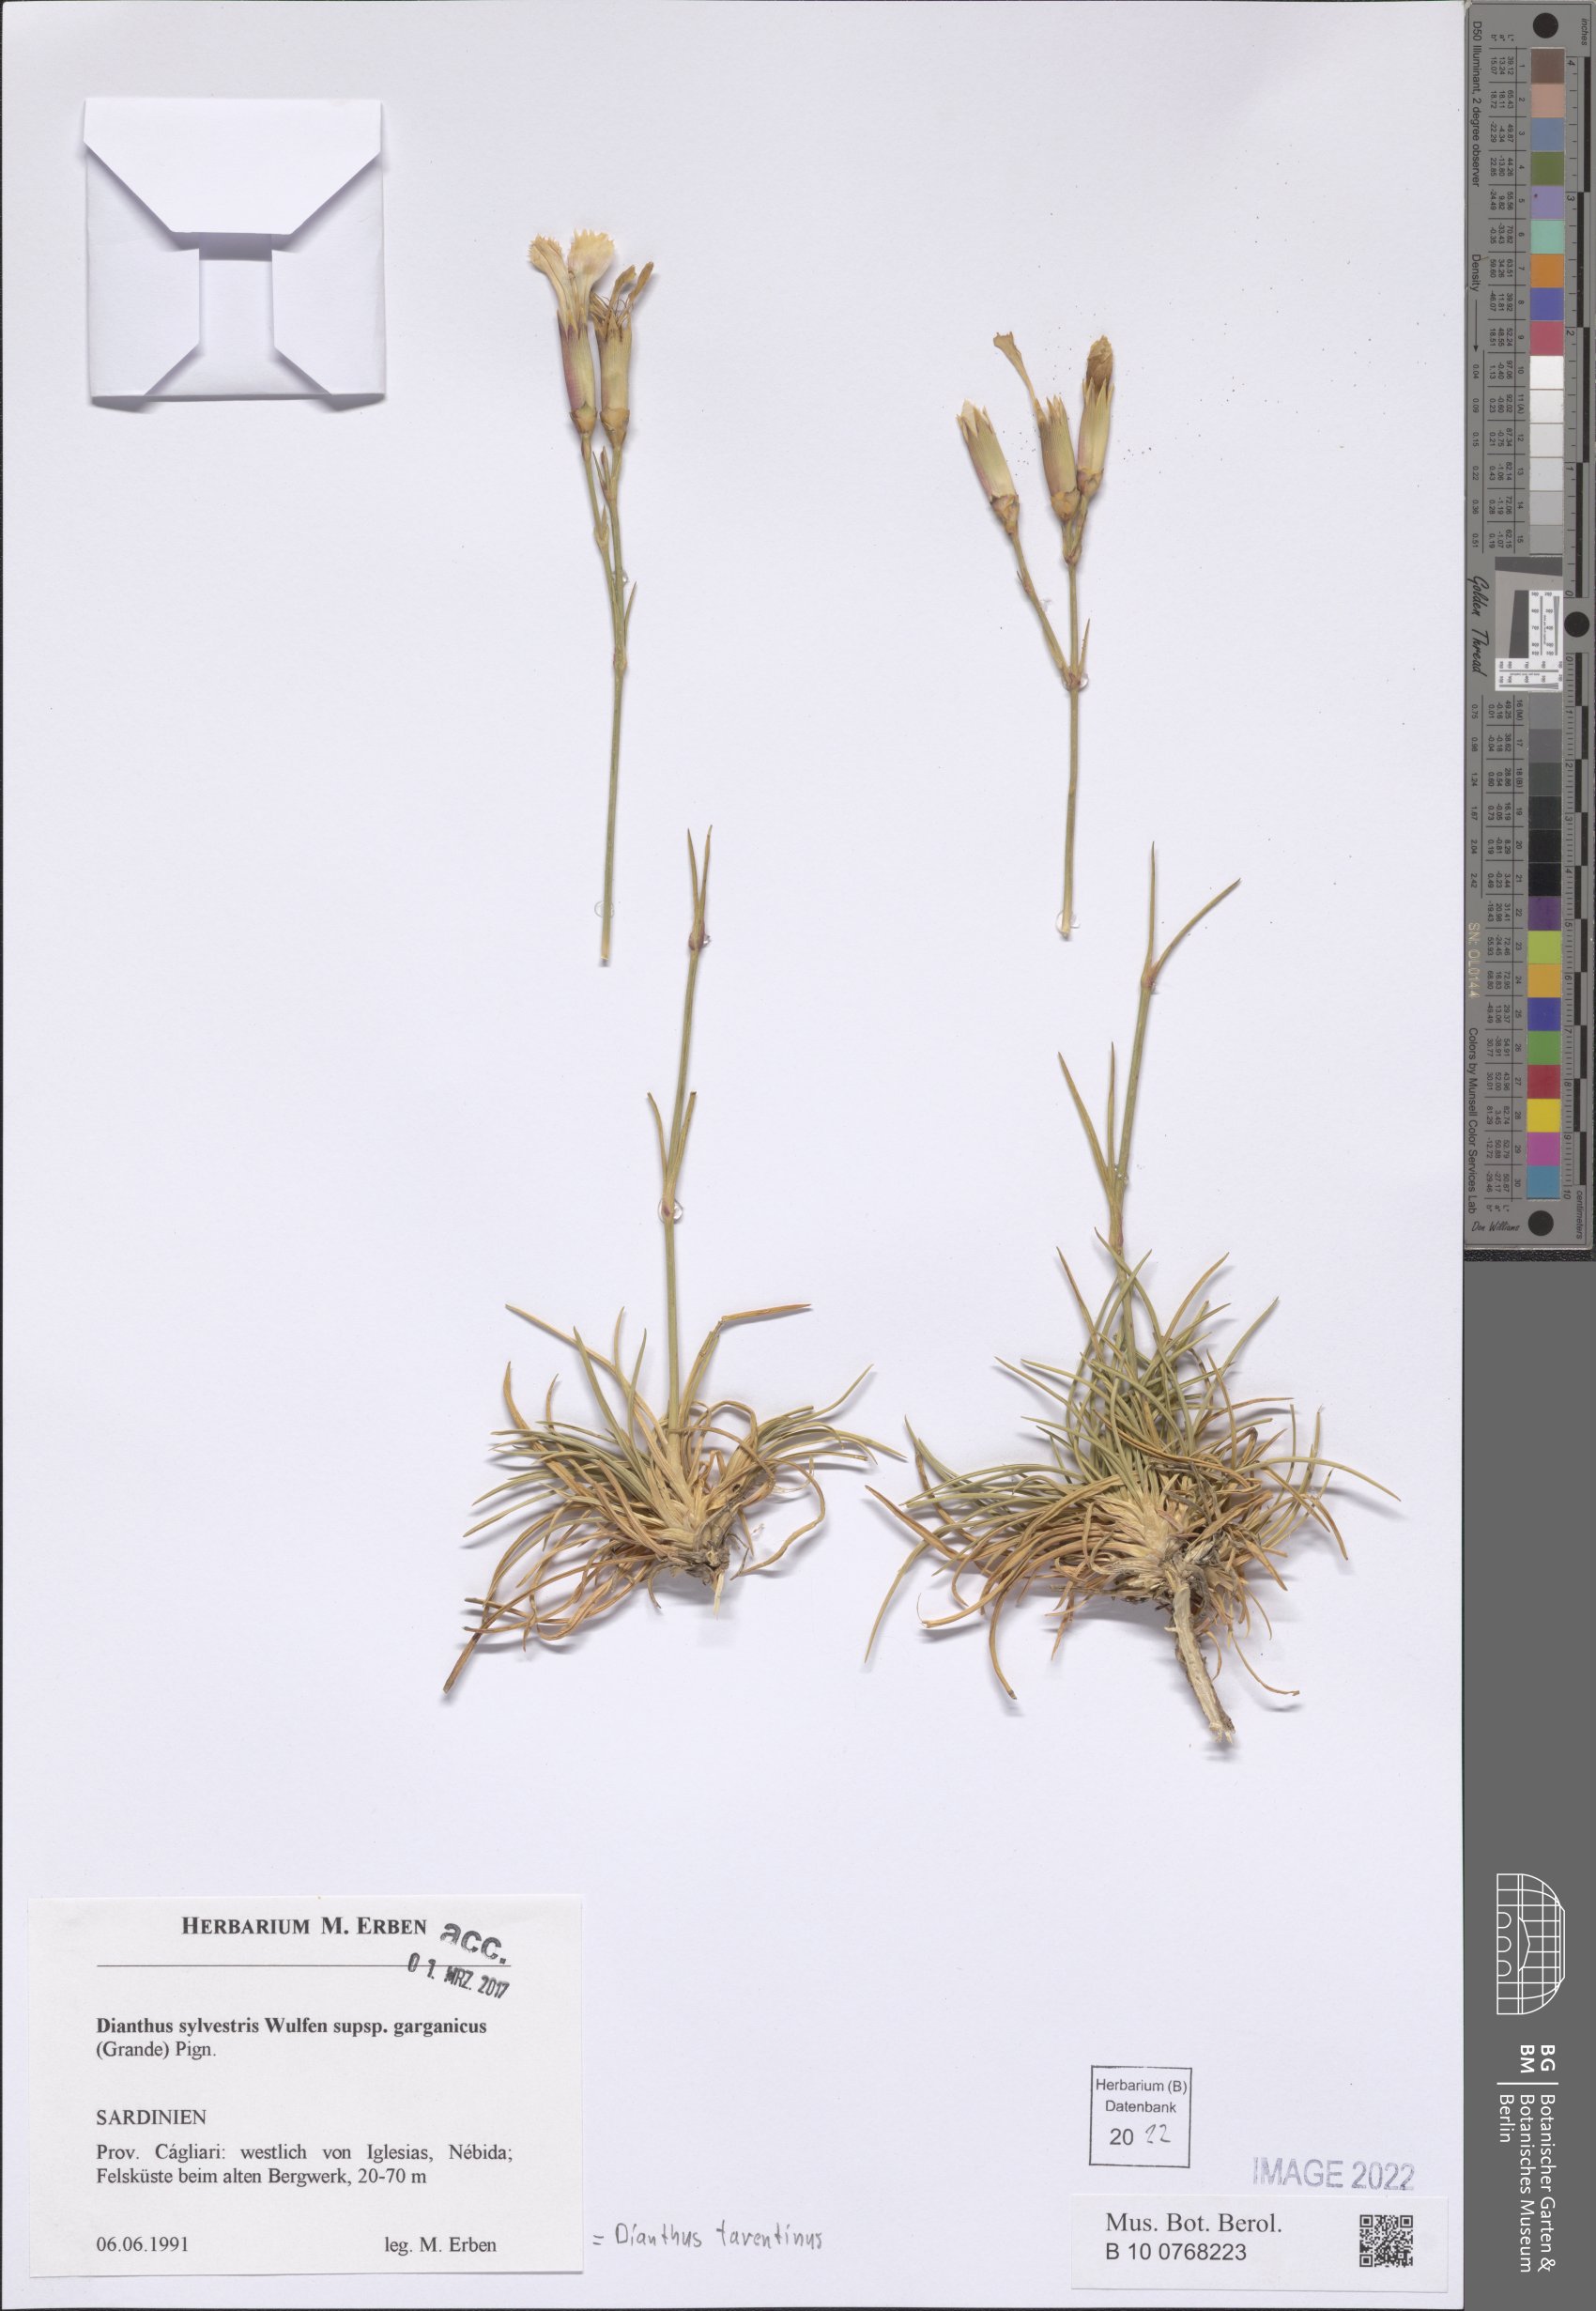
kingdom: Plantae
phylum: Tracheophyta
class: Magnoliopsida
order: Caryophyllales
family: Caryophyllaceae
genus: Dianthus
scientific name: Dianthus tarentinus
